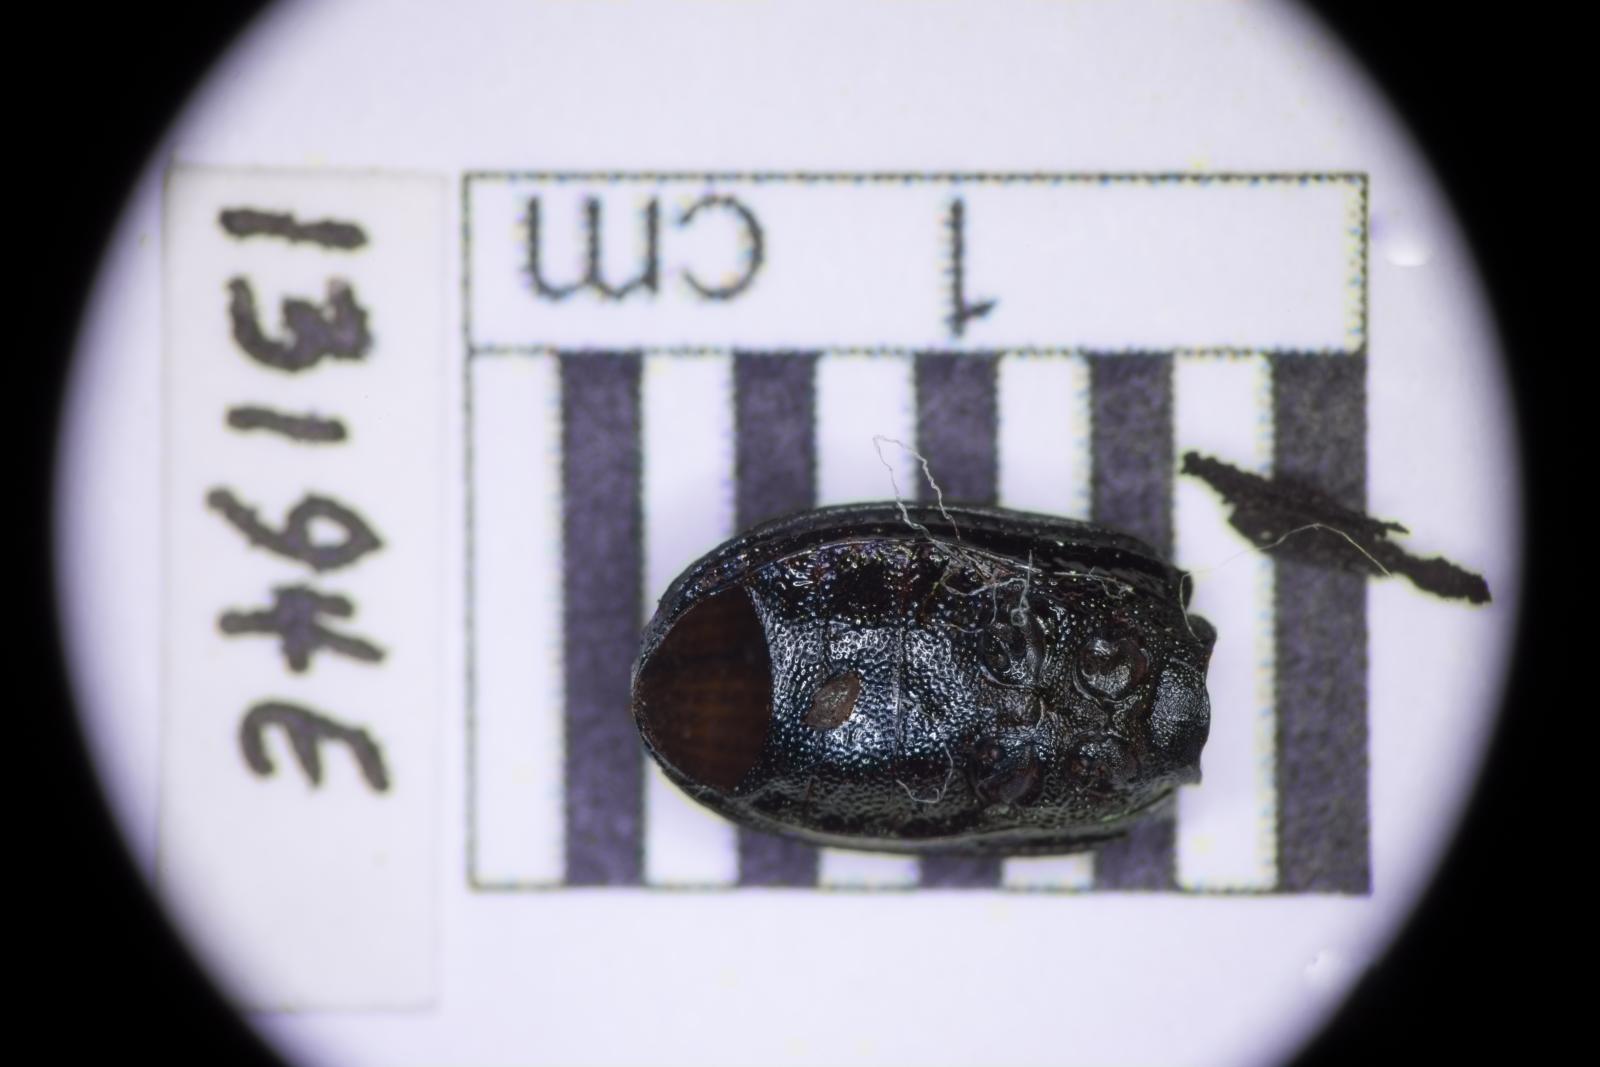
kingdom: Animalia
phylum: Arthropoda
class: Insecta
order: Coleoptera
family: Tenebrionidae
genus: Apsena
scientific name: Apsena laticornis
